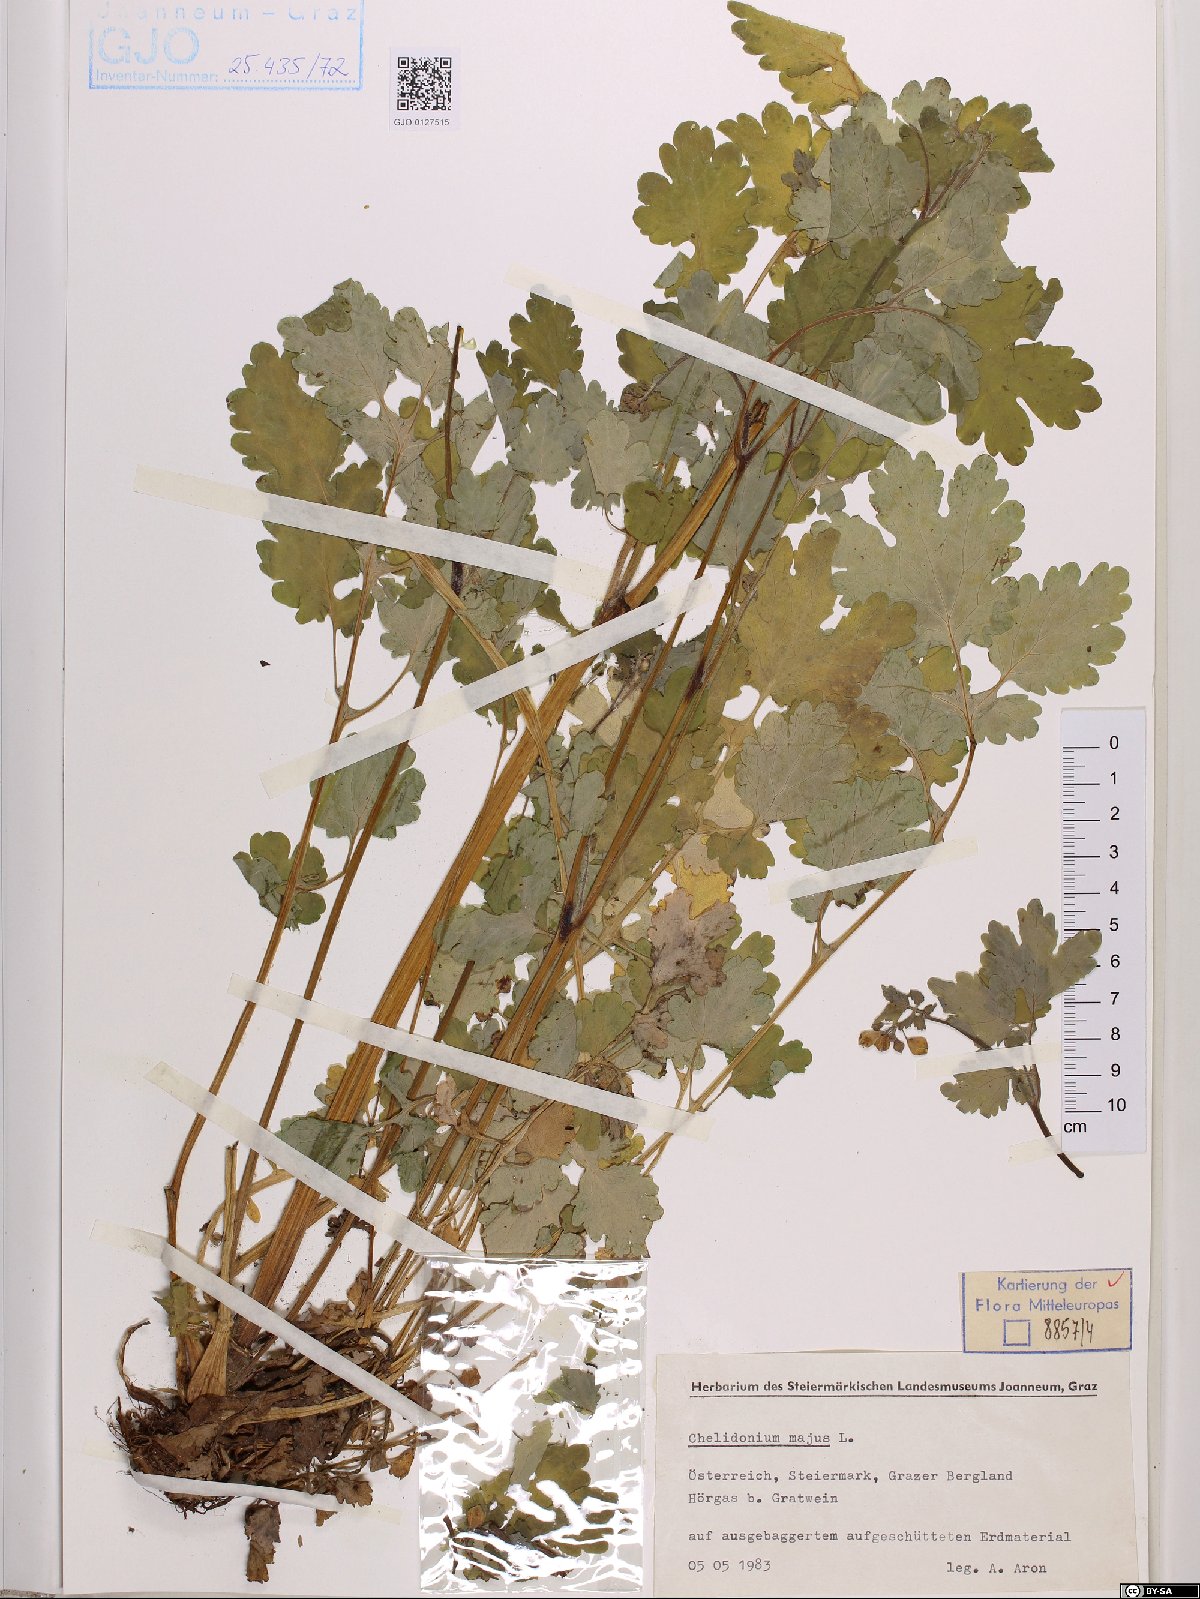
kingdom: Plantae
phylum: Tracheophyta
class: Magnoliopsida
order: Ranunculales
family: Papaveraceae
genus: Chelidonium
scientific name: Chelidonium majus
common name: Greater celandine
